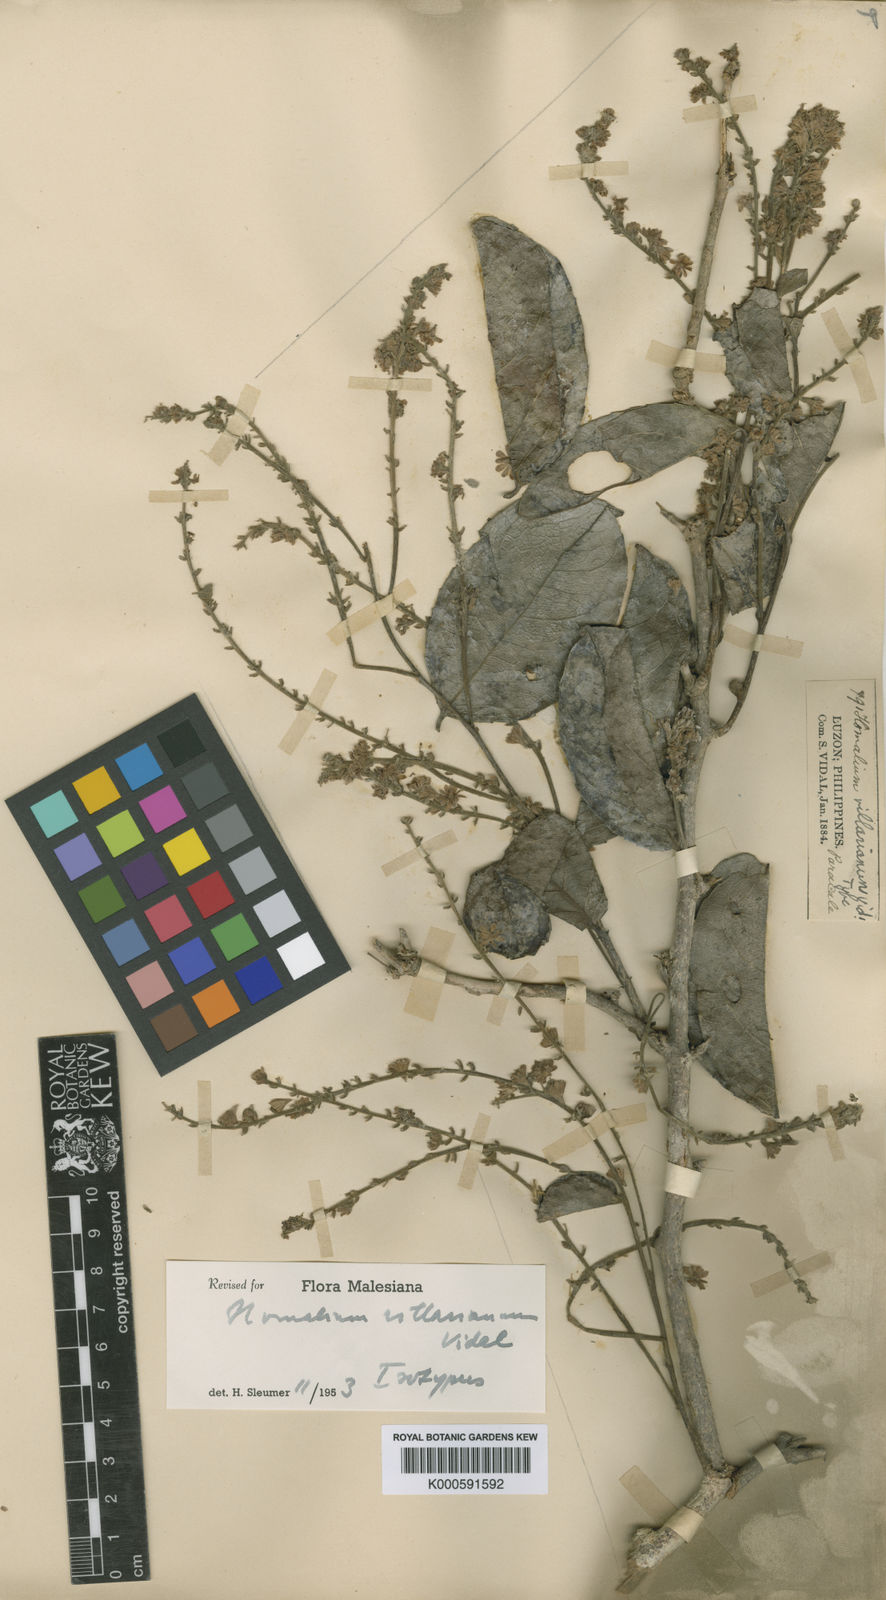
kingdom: Plantae
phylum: Tracheophyta
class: Magnoliopsida
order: Malpighiales
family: Salicaceae
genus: Homalium
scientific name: Homalium villarianum
